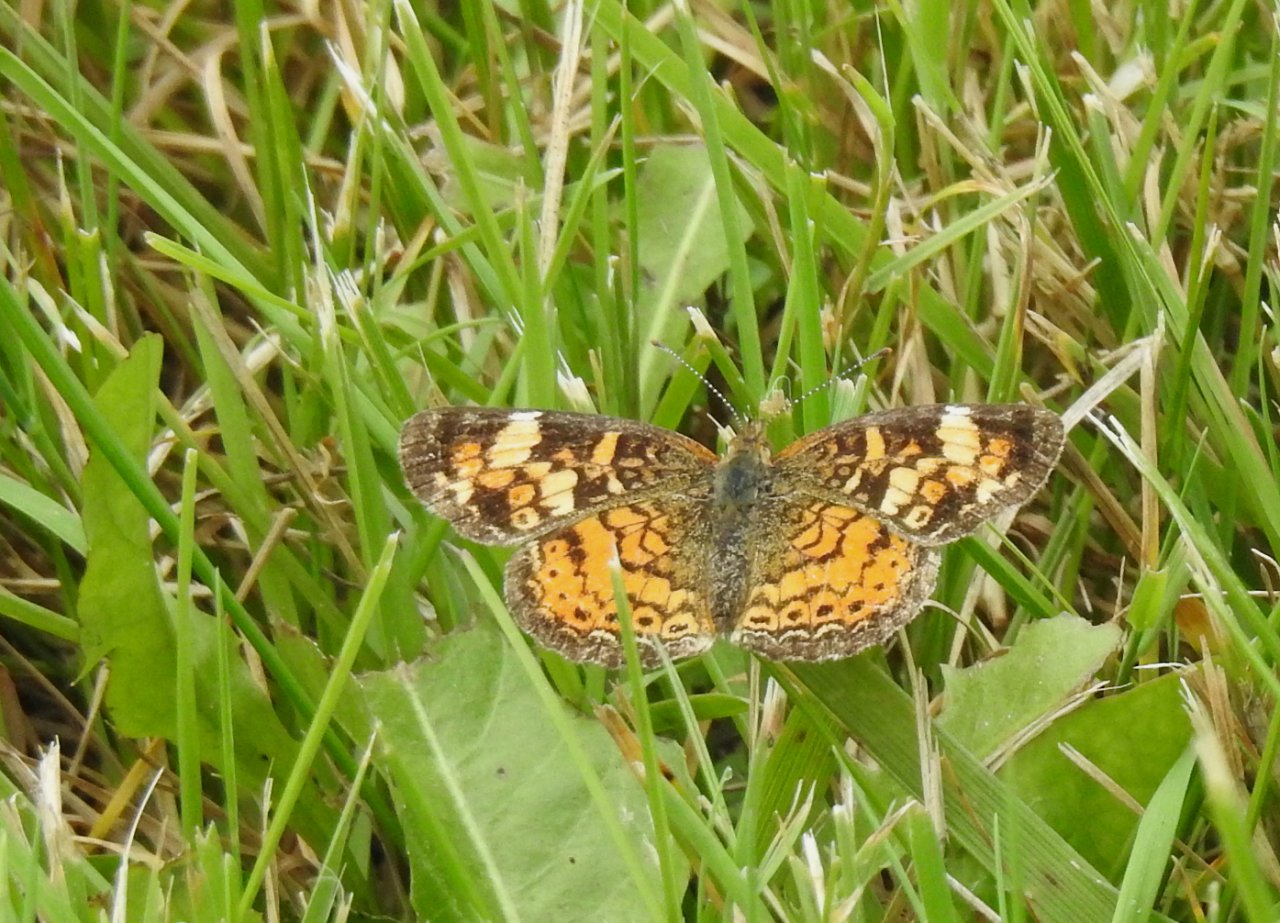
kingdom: Animalia
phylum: Arthropoda
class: Insecta
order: Lepidoptera
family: Nymphalidae
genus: Phyciodes
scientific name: Phyciodes tharos
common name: Pearl Crescent
